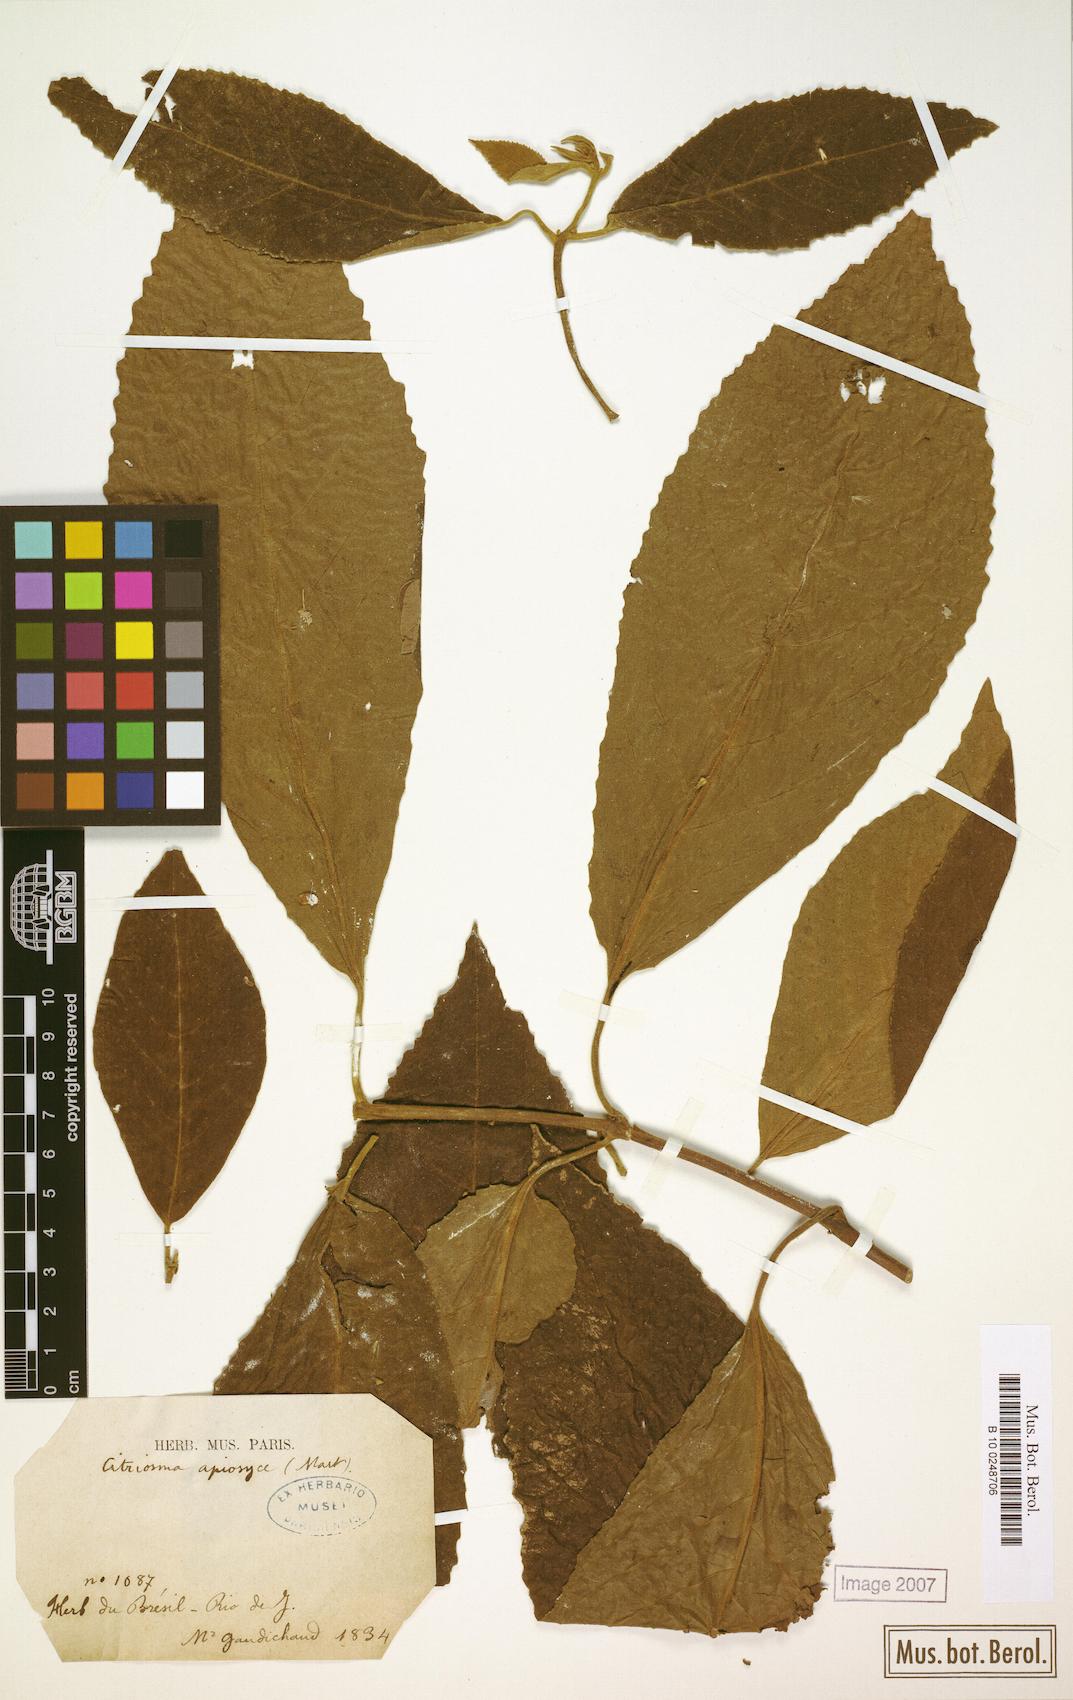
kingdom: Plantae
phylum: Tracheophyta
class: Magnoliopsida
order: Laurales
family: Siparunaceae
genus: Siparuna
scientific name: Siparuna brasiliensis
